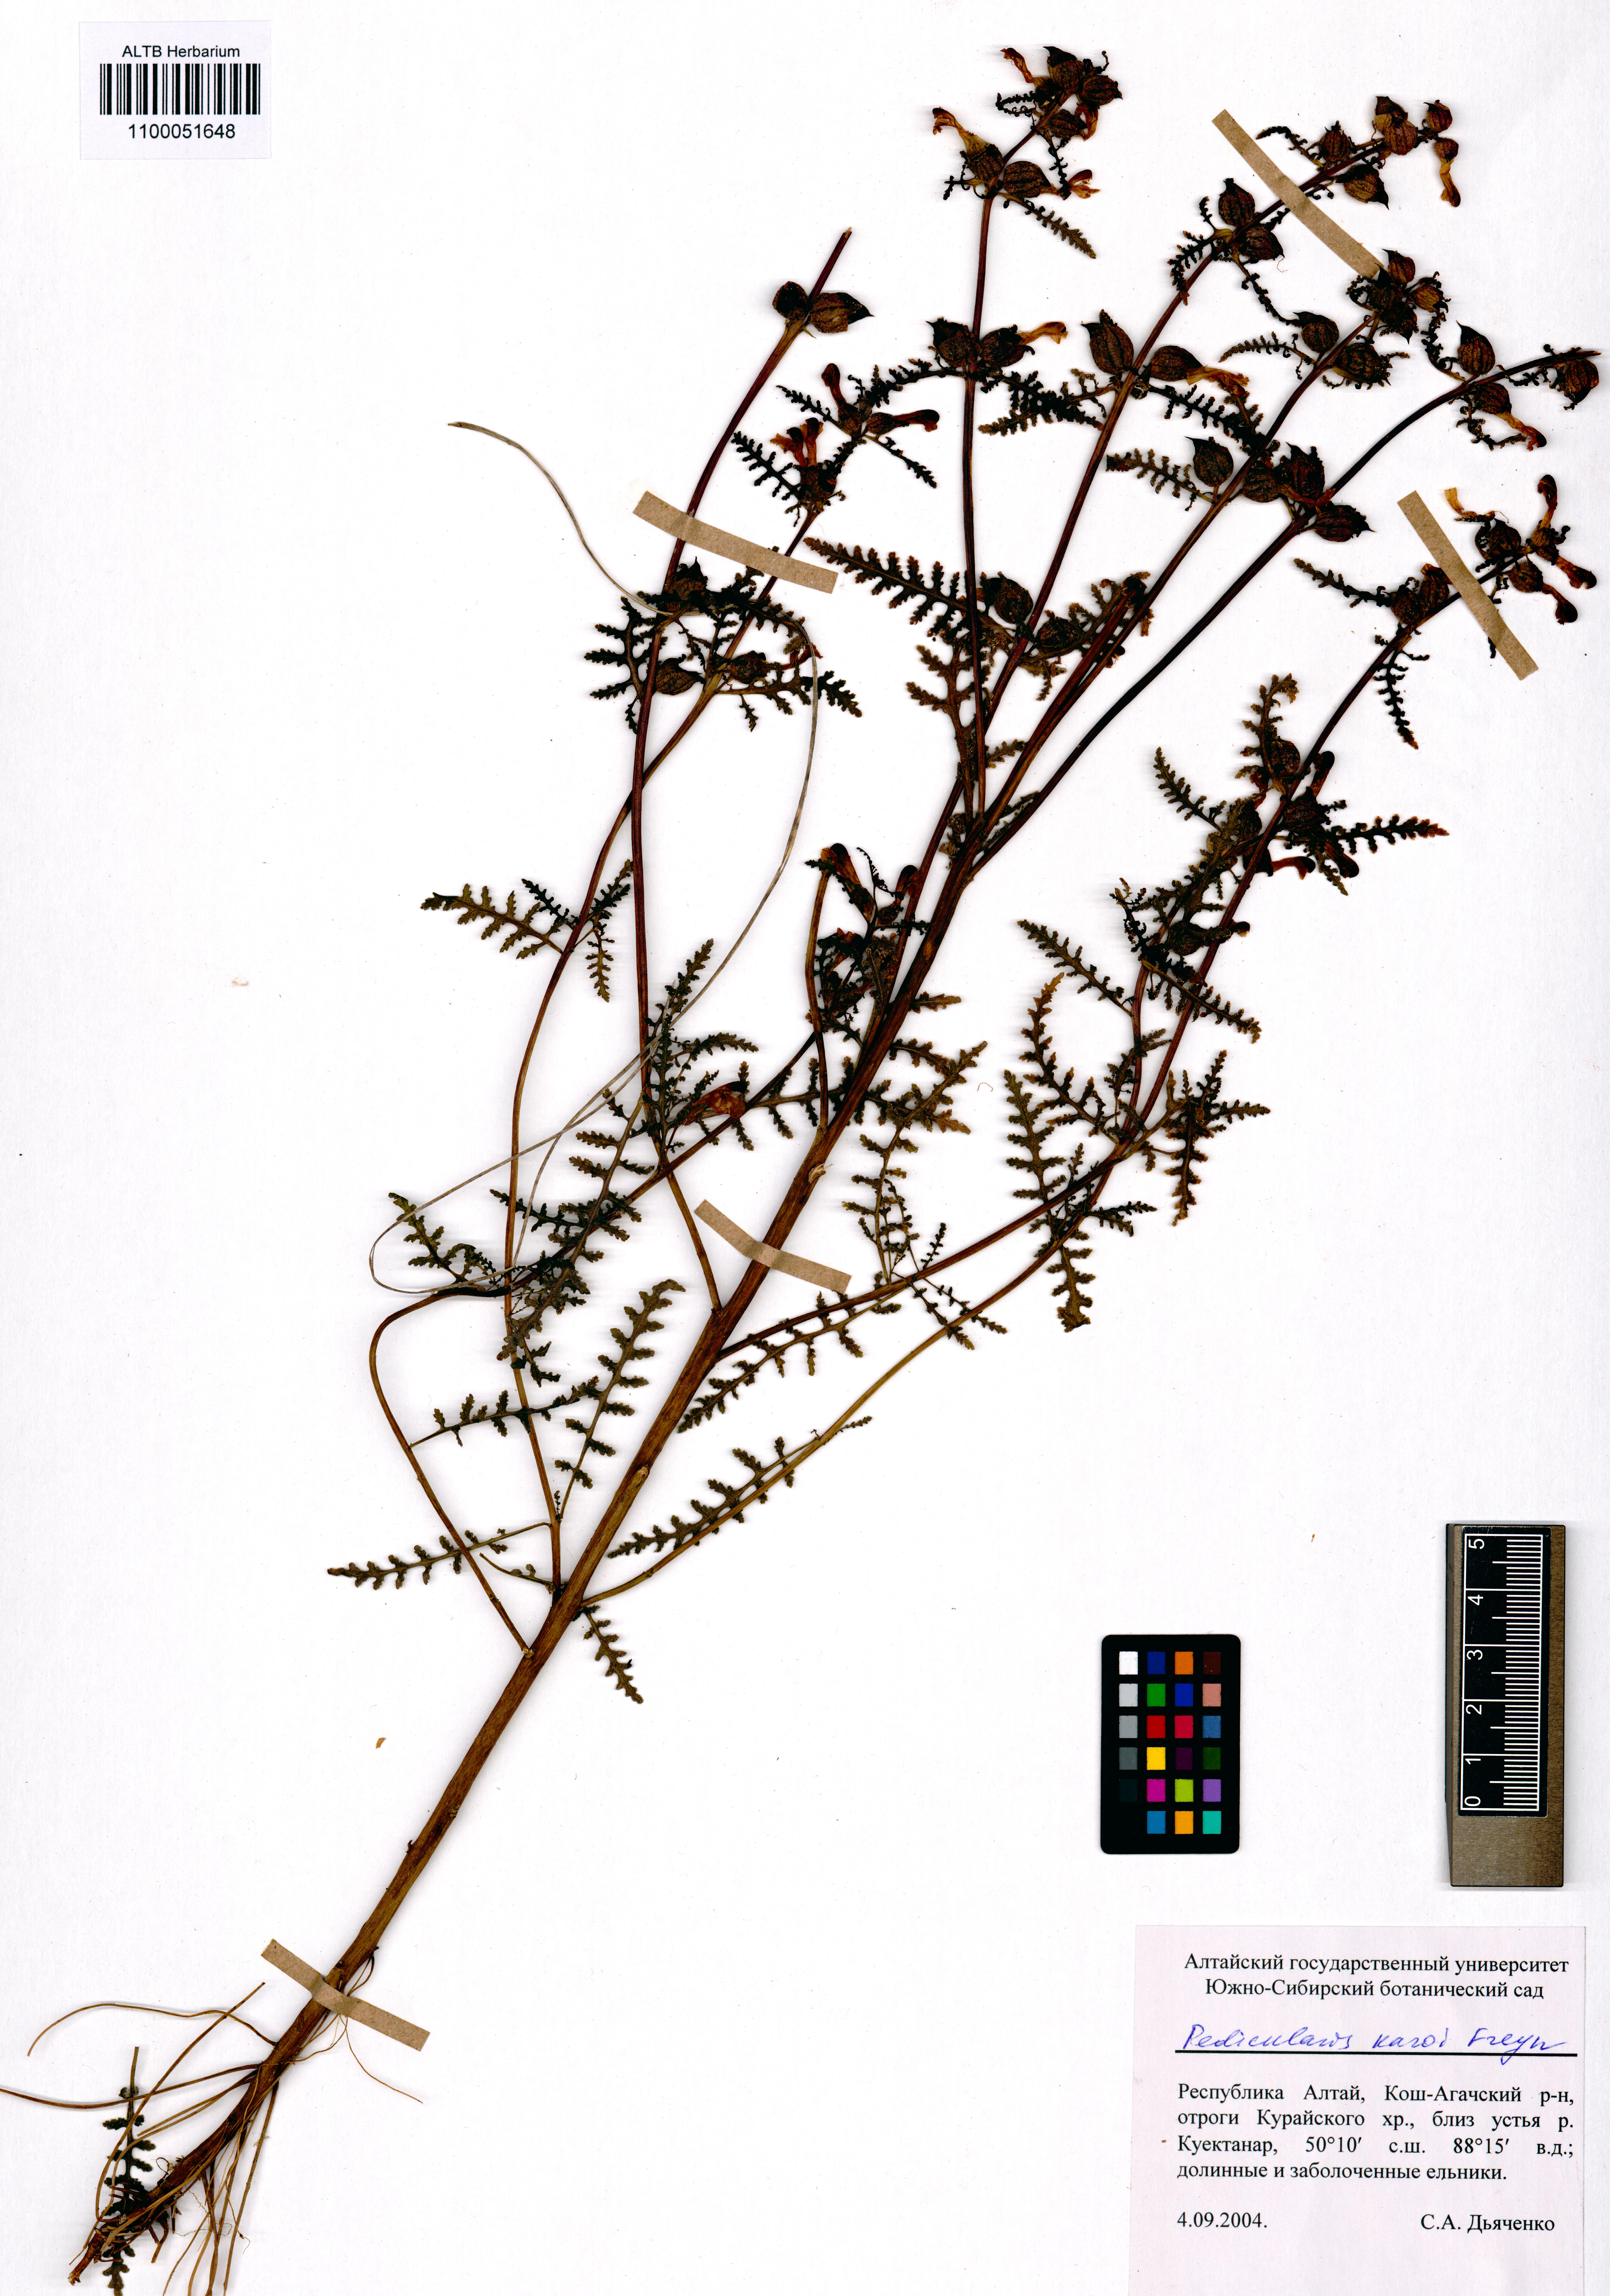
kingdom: Plantae
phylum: Tracheophyta
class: Magnoliopsida
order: Lamiales
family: Orobanchaceae
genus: Pedicularis
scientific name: Pedicularis karoi
